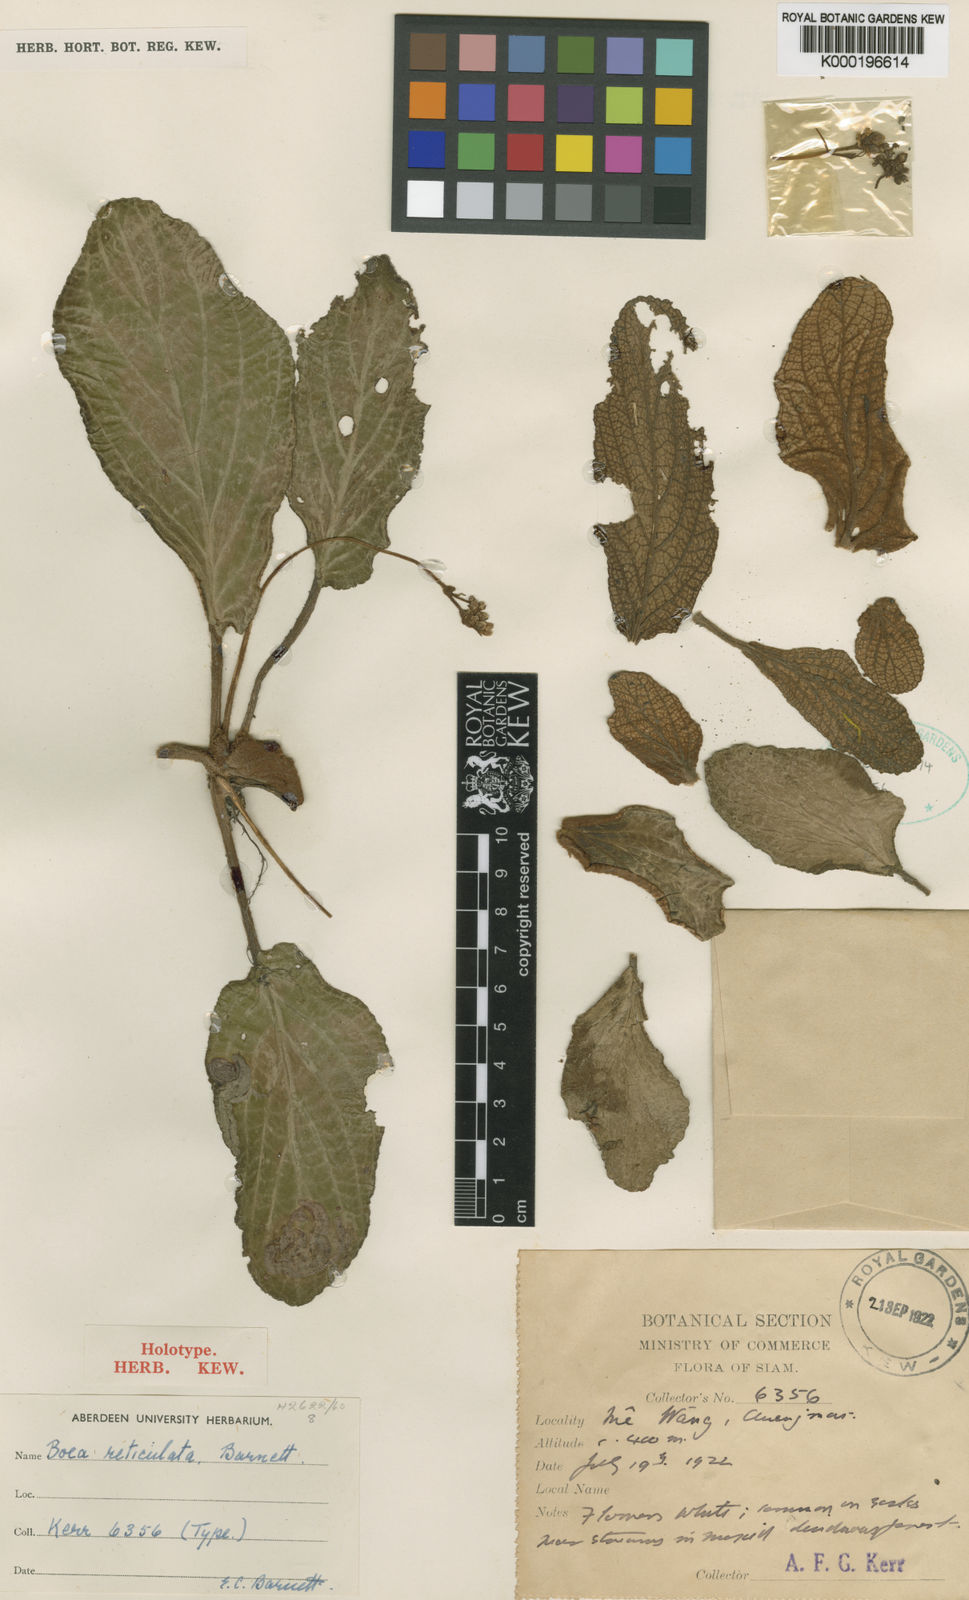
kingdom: Plantae
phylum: Tracheophyta
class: Magnoliopsida
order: Lamiales
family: Gesneriaceae
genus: Middletonia
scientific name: Middletonia multiflora
